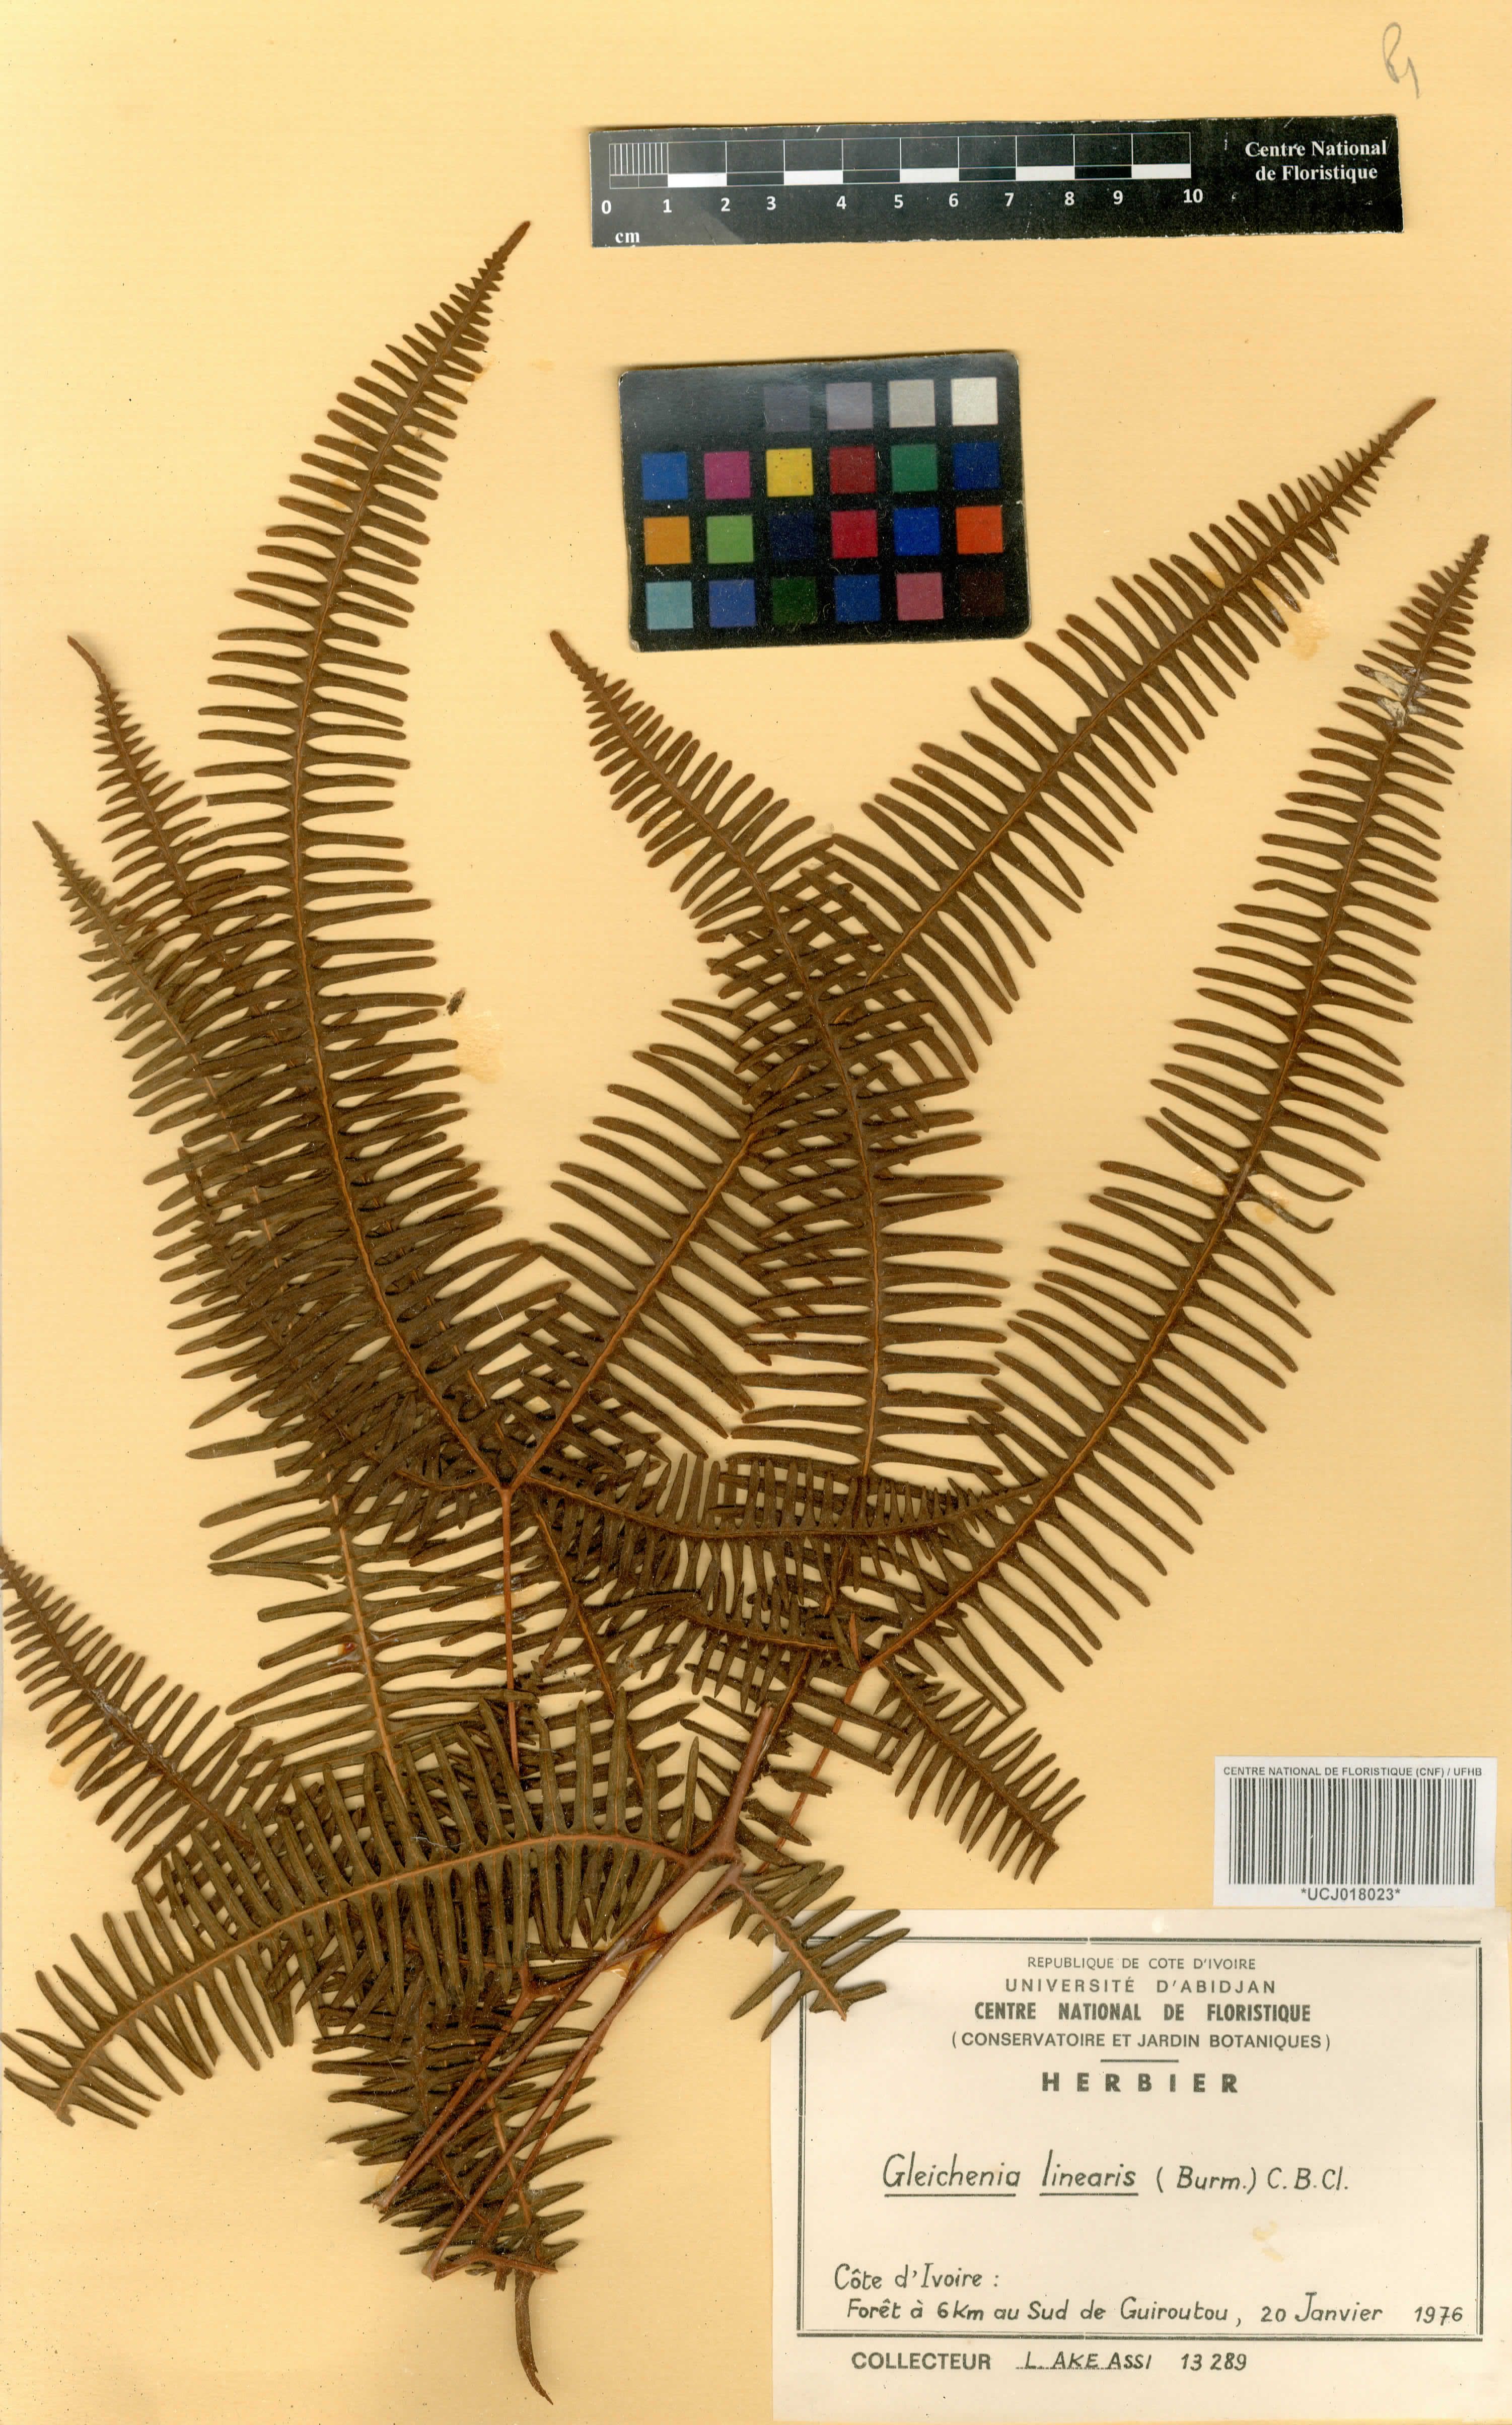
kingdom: Plantae
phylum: Tracheophyta
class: Polypodiopsida
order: Gleicheniales
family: Gleicheniaceae
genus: Dicranopteris
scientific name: Dicranopteris linearis
